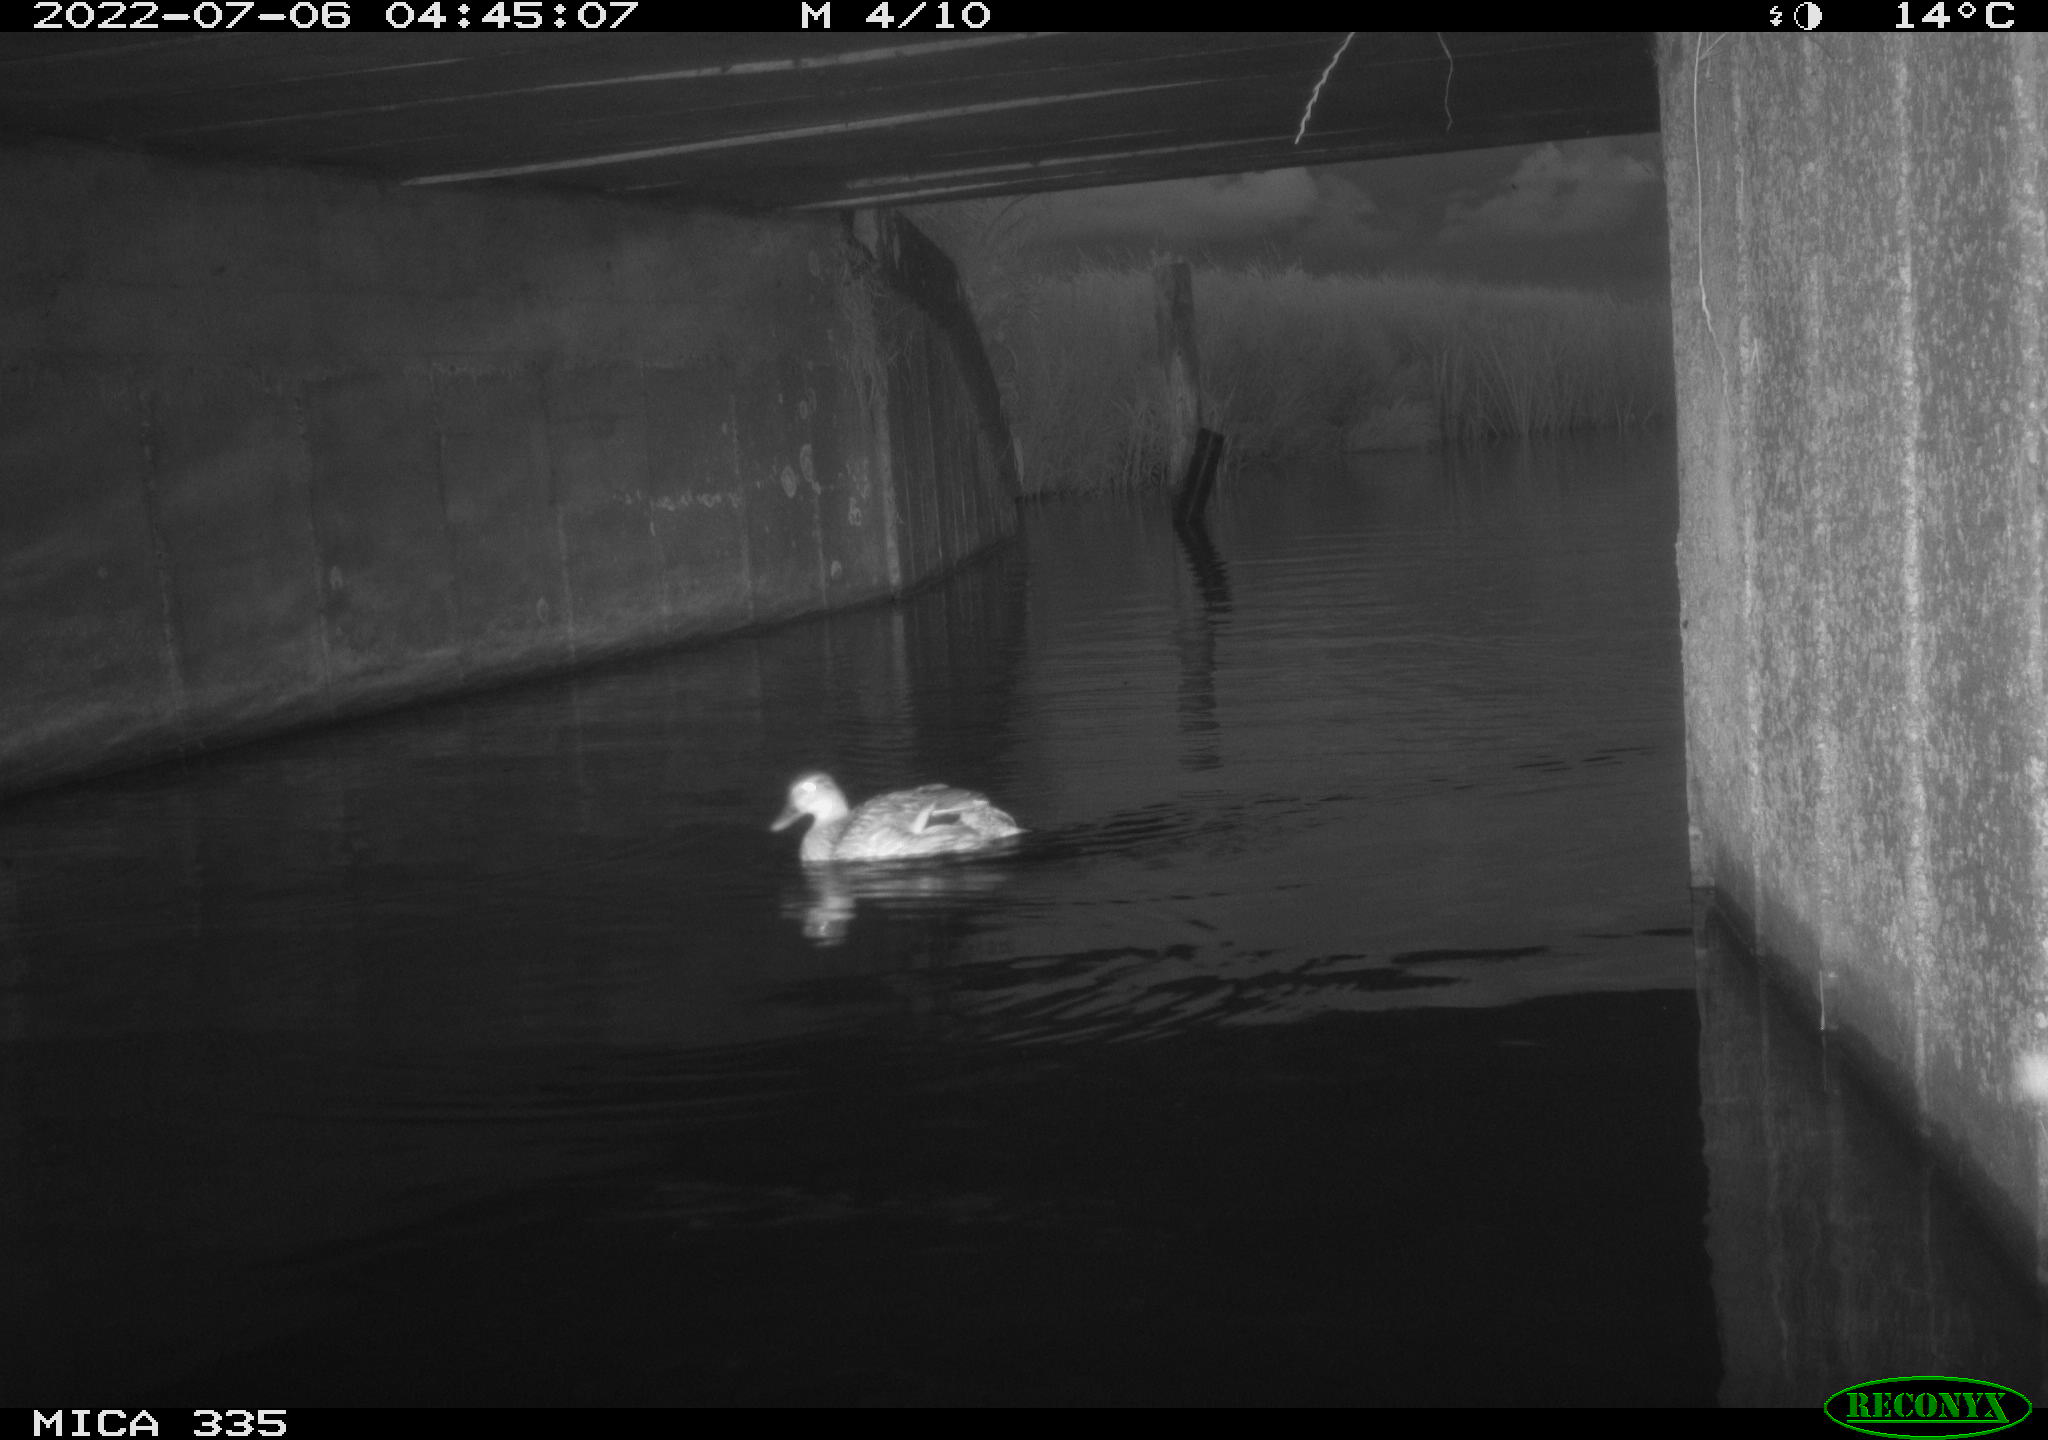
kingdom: Animalia
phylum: Chordata
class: Aves
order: Anseriformes
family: Anatidae
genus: Anas
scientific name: Anas platyrhynchos
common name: Mallard
